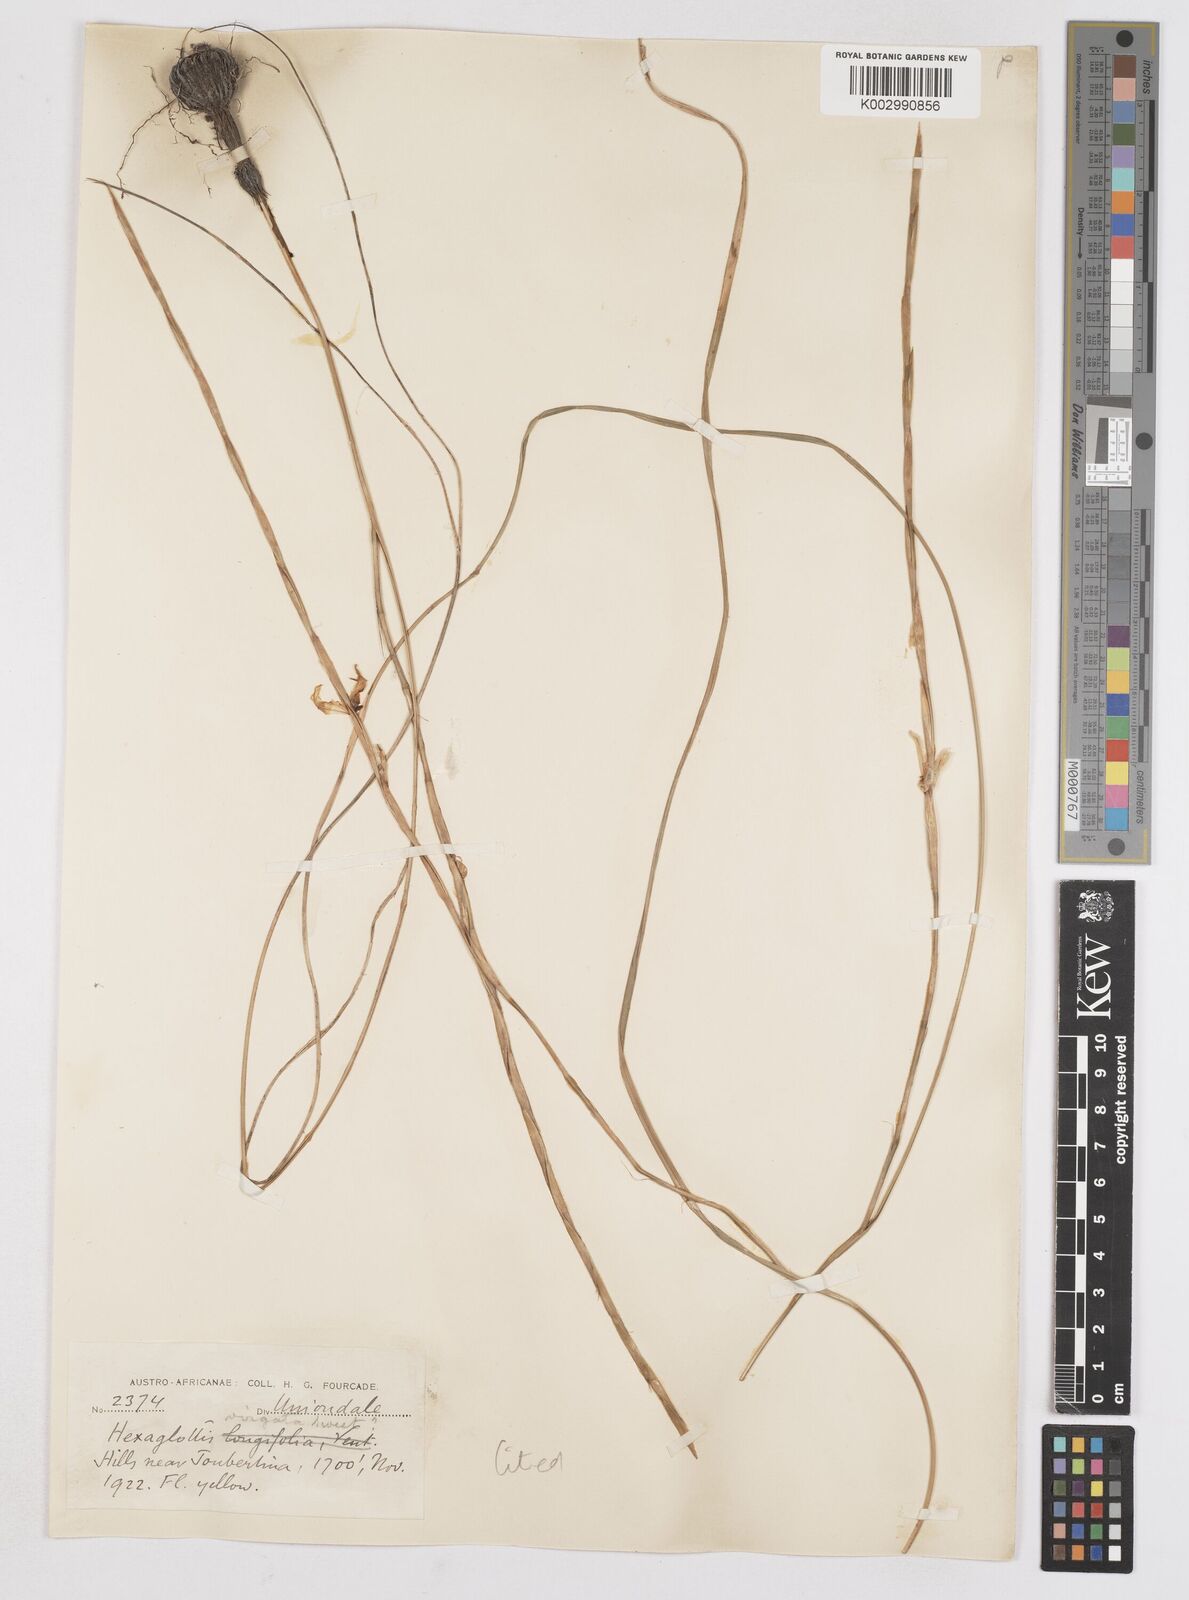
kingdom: Plantae
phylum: Tracheophyta
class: Liliopsida
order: Asparagales
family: Iridaceae
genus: Moraea
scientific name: Moraea virgata
